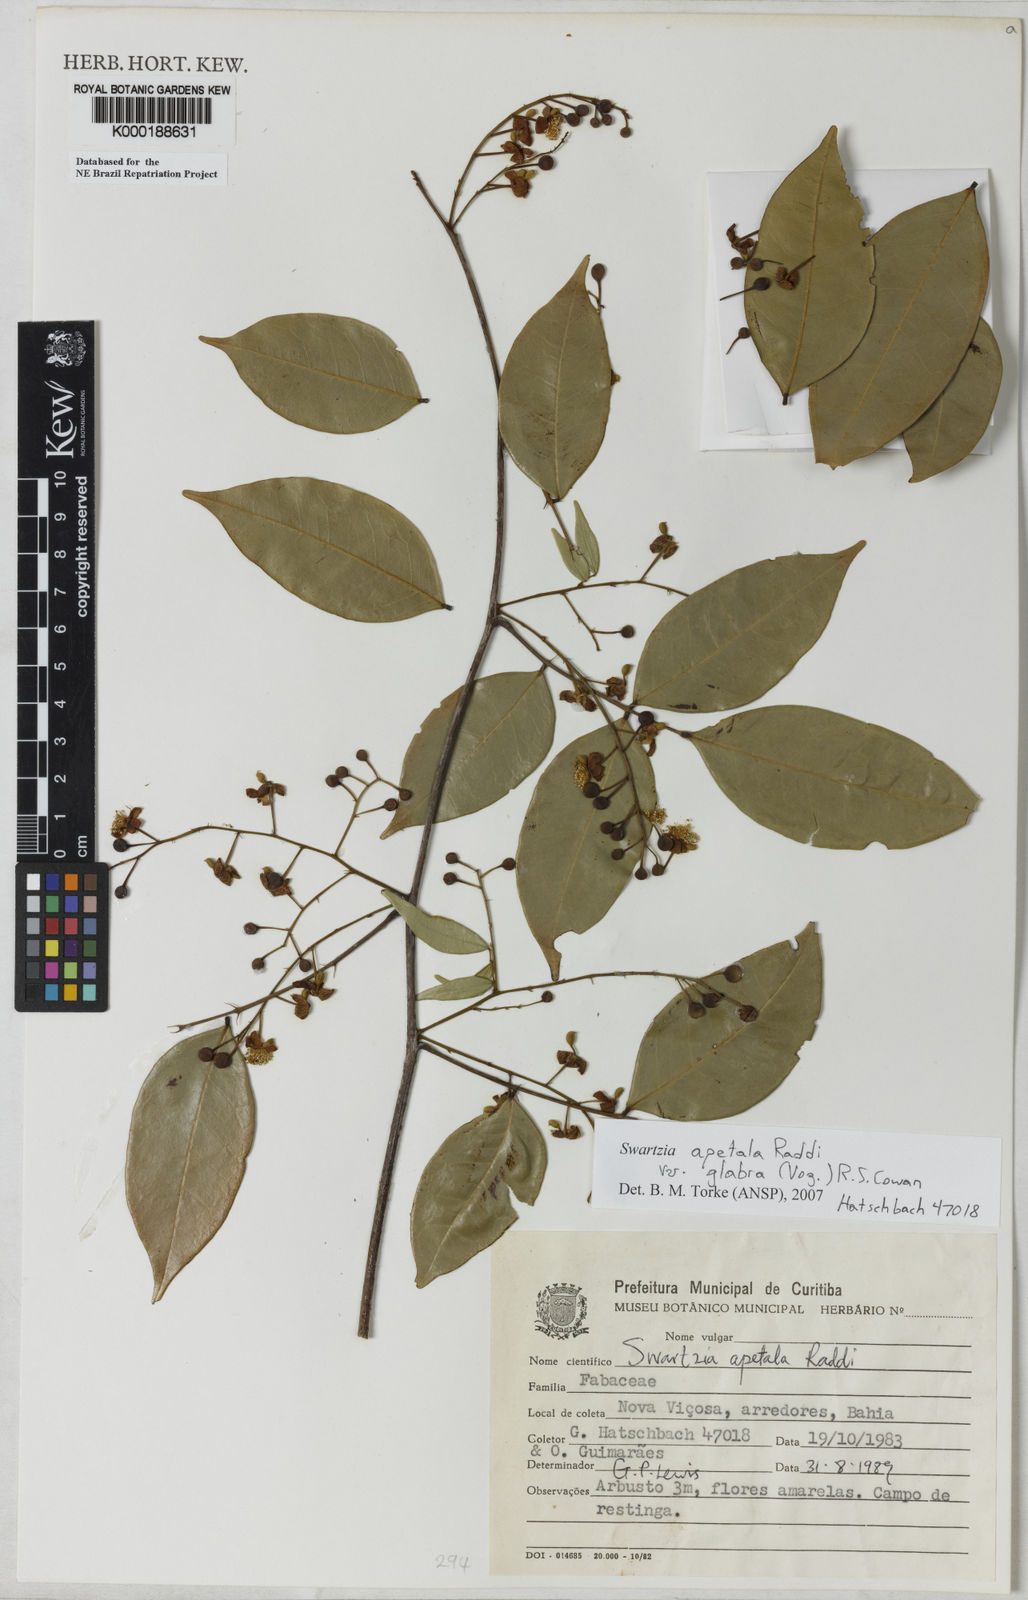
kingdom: Plantae
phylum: Tracheophyta
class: Magnoliopsida
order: Fabales
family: Fabaceae
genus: Swartzia
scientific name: Swartzia apetala
